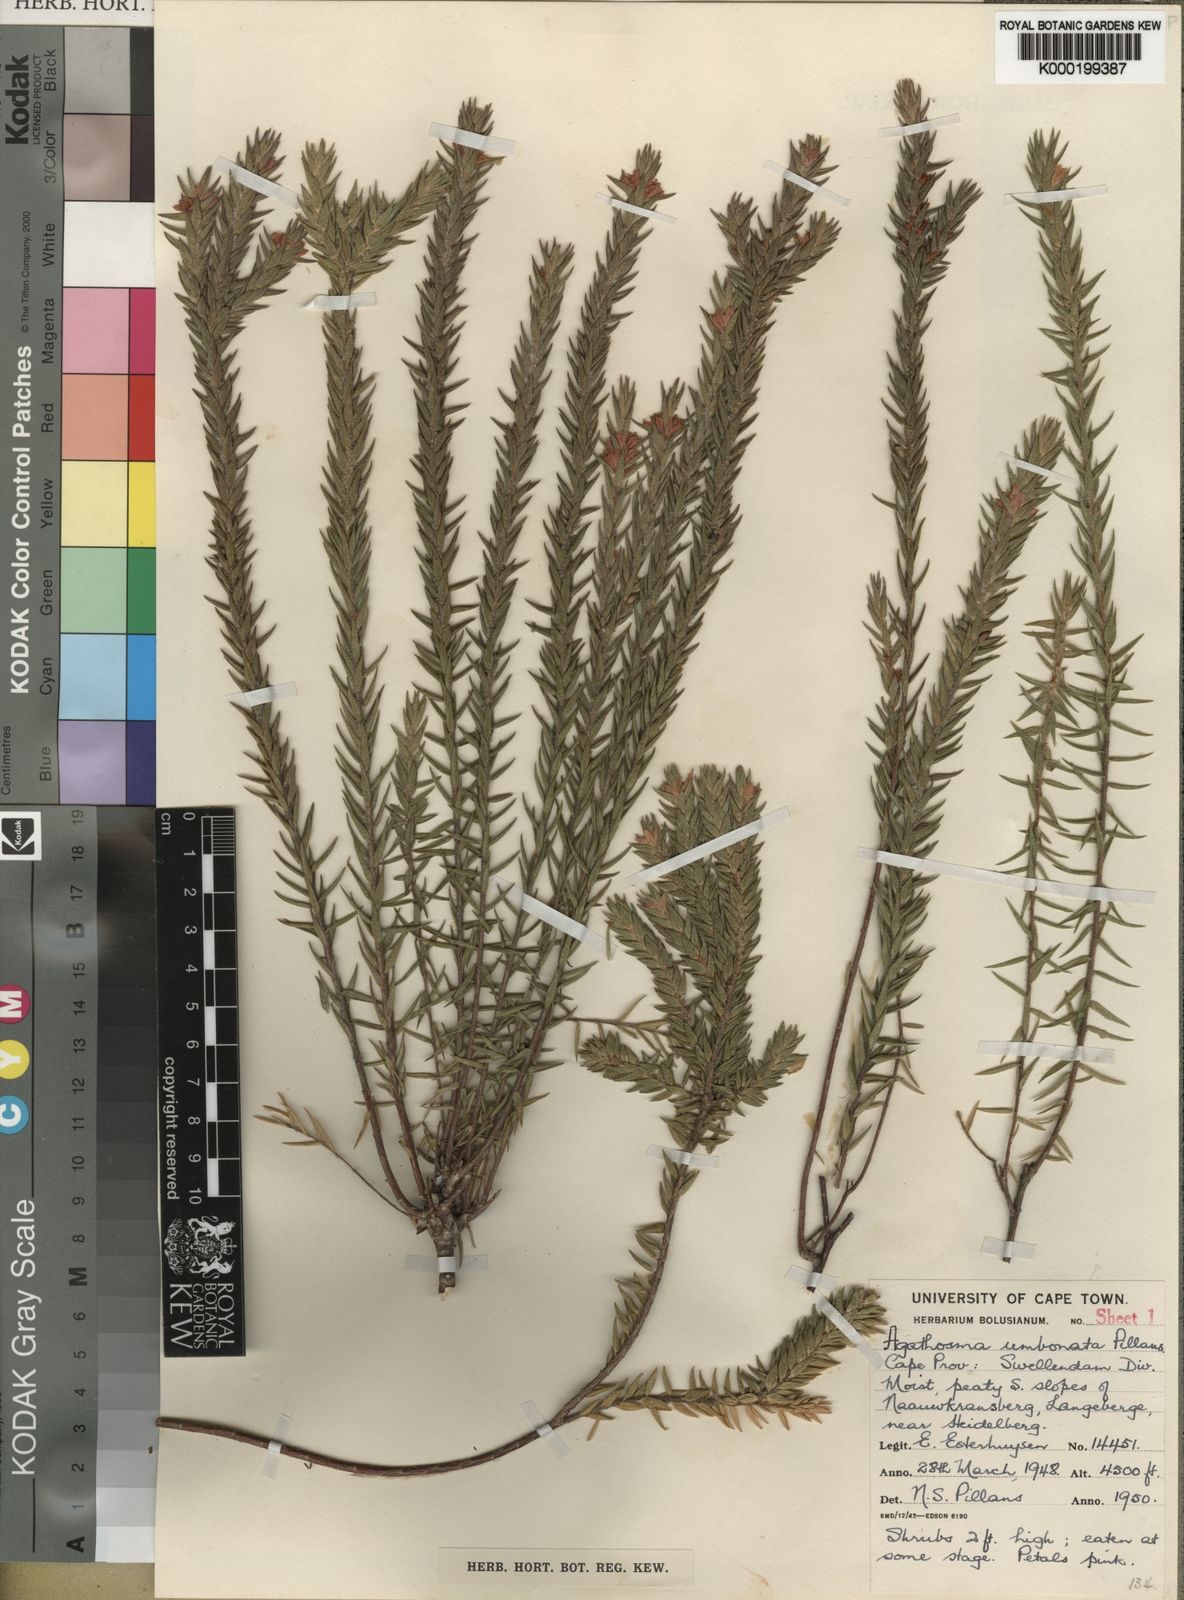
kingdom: Plantae
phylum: Tracheophyta
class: Magnoliopsida
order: Sapindales
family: Rutaceae
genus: Agathosma
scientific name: Agathosma umbonata
